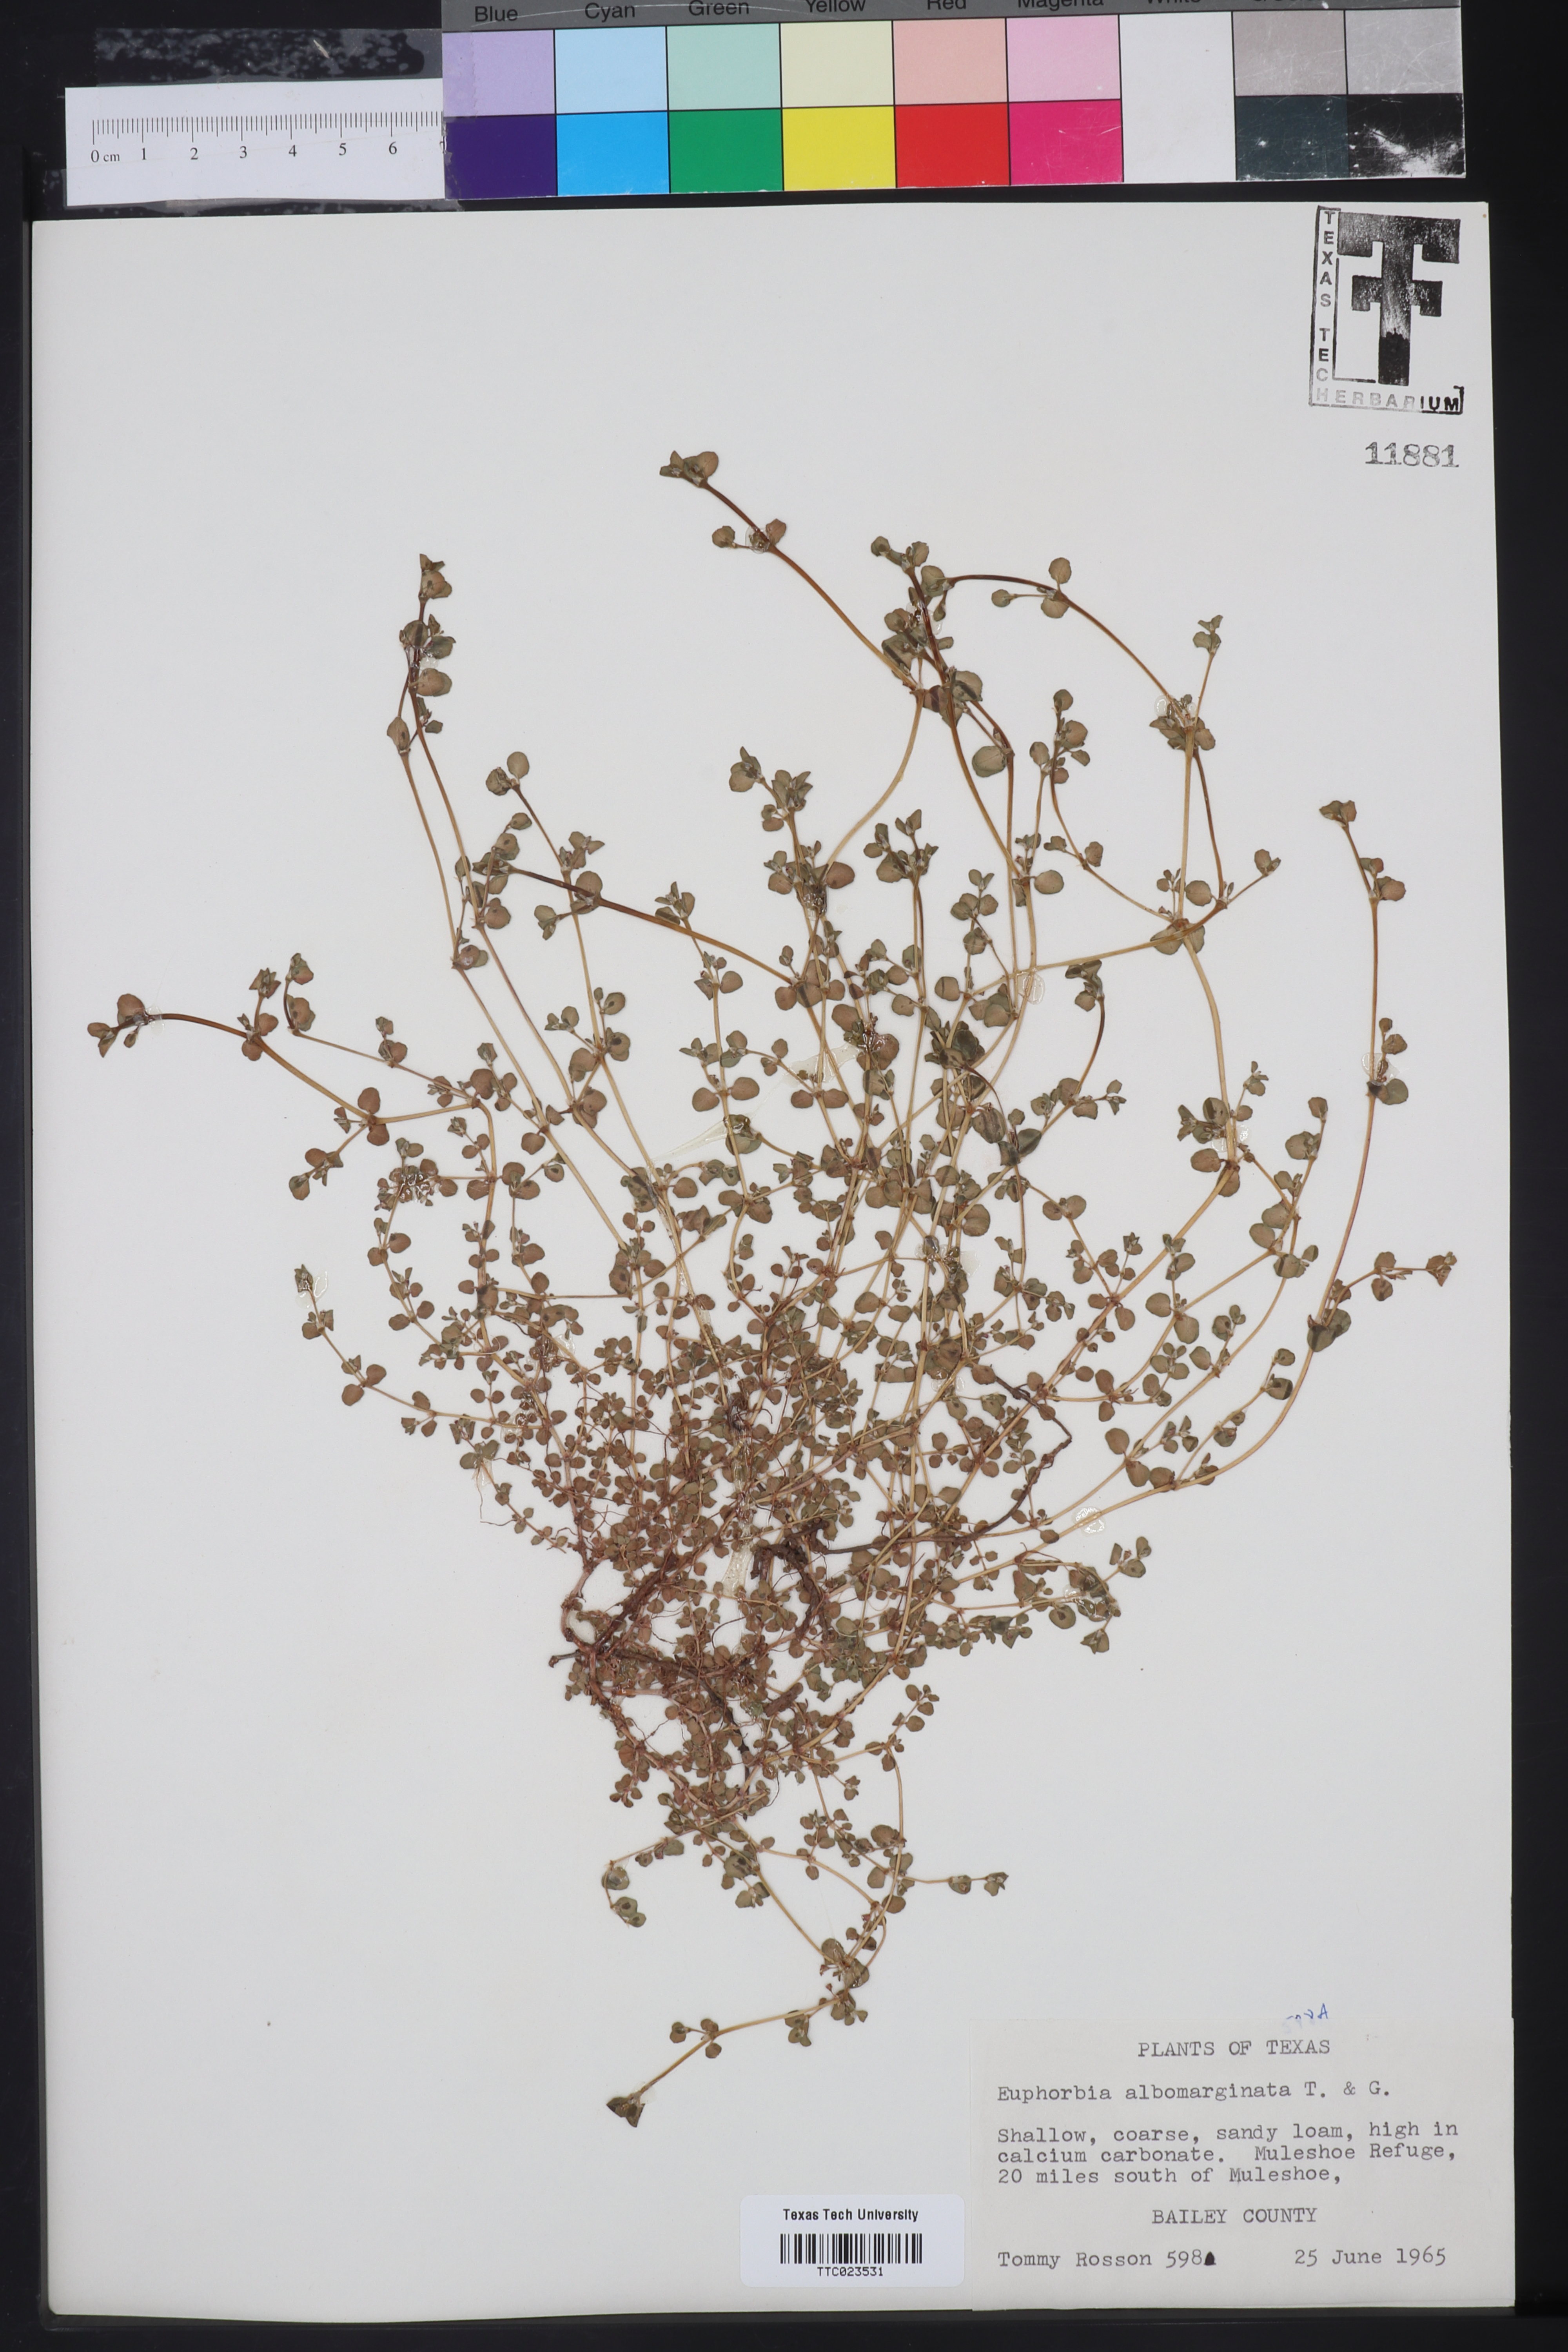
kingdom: Plantae
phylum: Tracheophyta
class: Magnoliopsida
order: Malpighiales
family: Euphorbiaceae
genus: Euphorbia
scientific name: Euphorbia albomarginata
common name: Whitemargin sandmat
